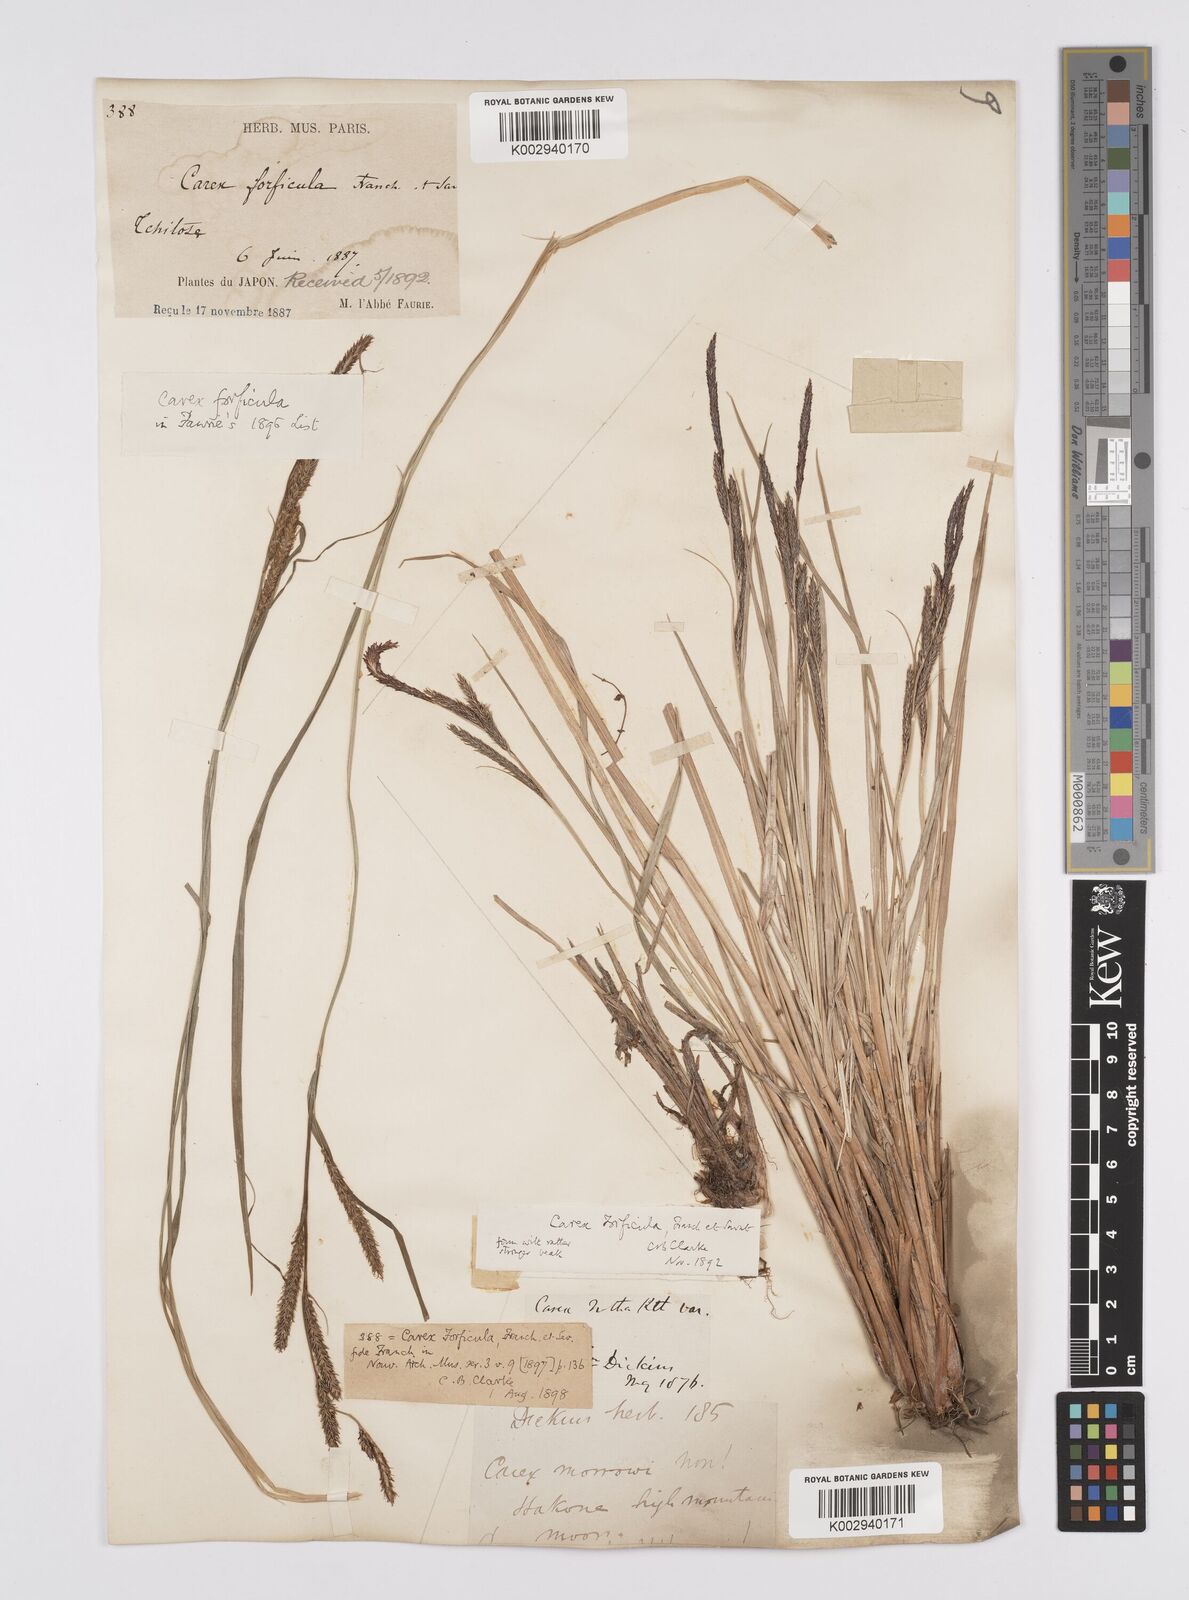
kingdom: Plantae
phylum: Tracheophyta
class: Liliopsida
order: Poales
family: Cyperaceae
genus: Carex
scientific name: Carex forficula
